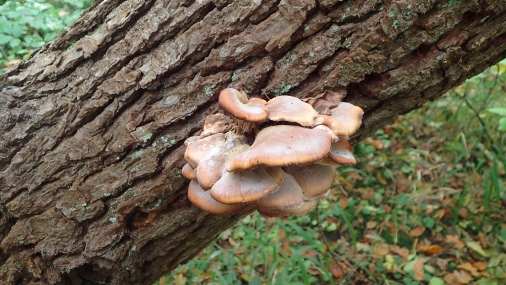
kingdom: Fungi
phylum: Basidiomycota
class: Agaricomycetes
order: Russulales
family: Auriscalpiaceae
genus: Lentinellus
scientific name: Lentinellus ursinus
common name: børstehåret savbladhat
